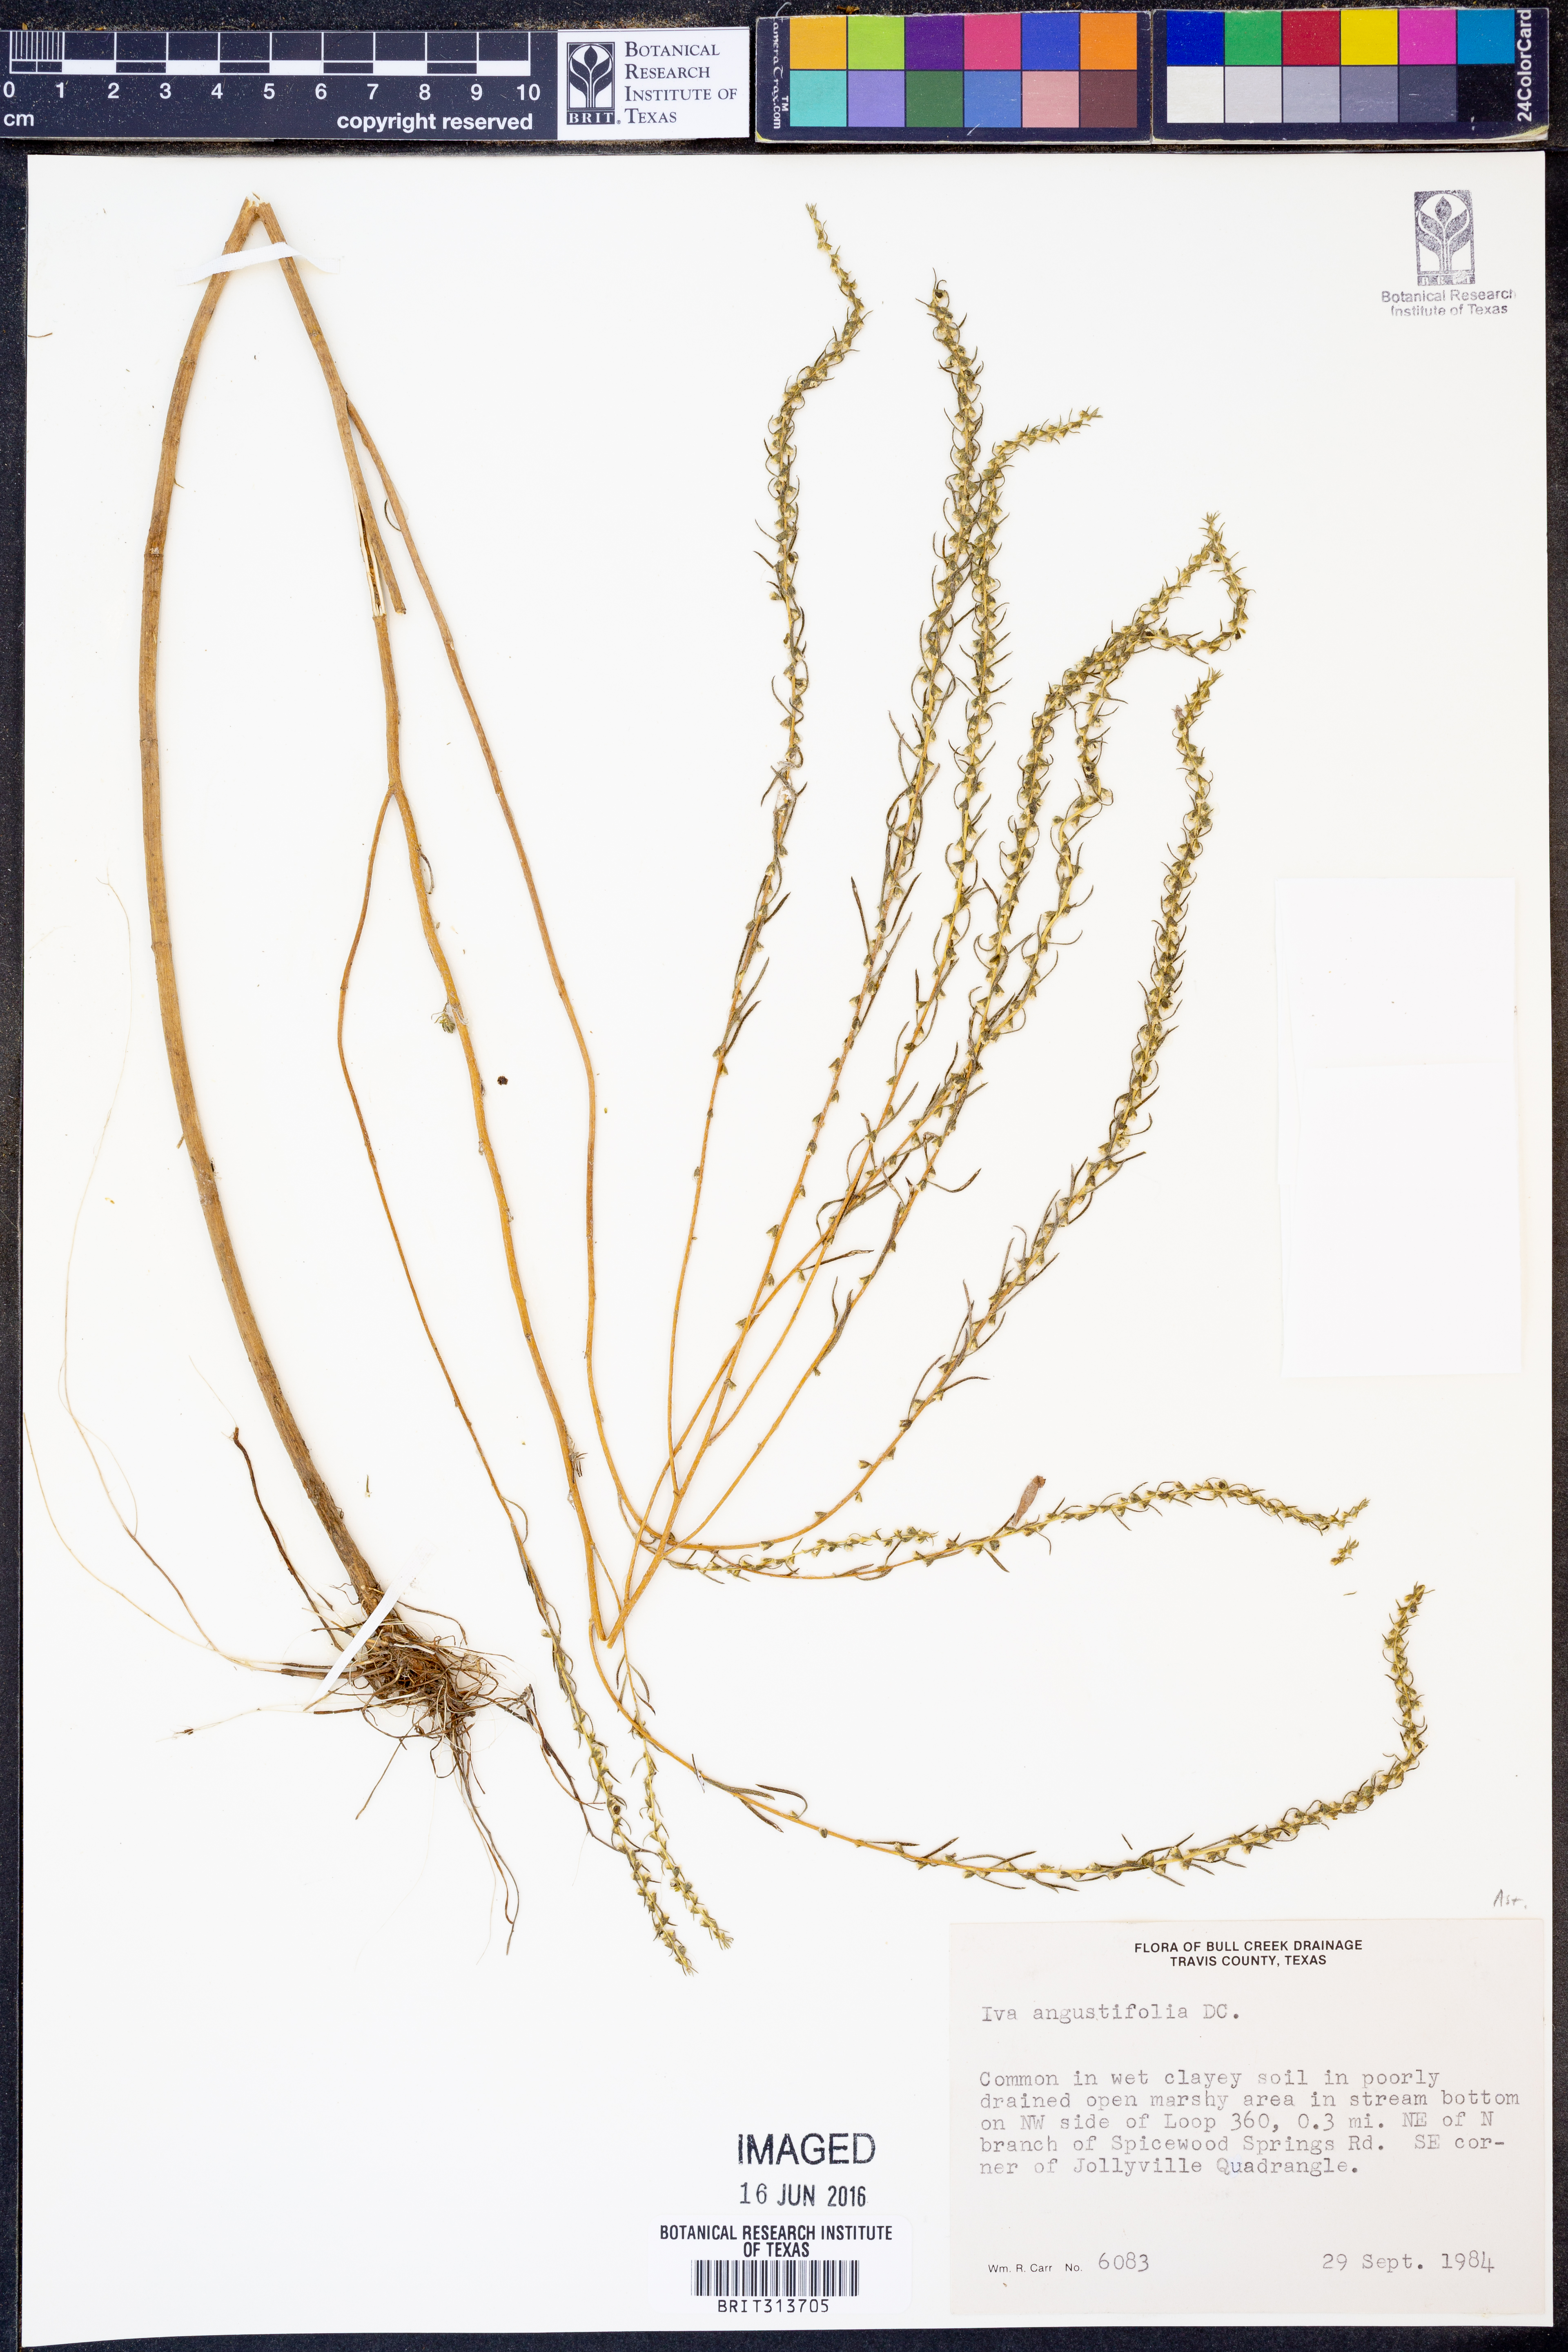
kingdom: Plantae
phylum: Tracheophyta
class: Magnoliopsida
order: Asterales
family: Asteraceae
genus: Iva
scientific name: Iva asperifolia
